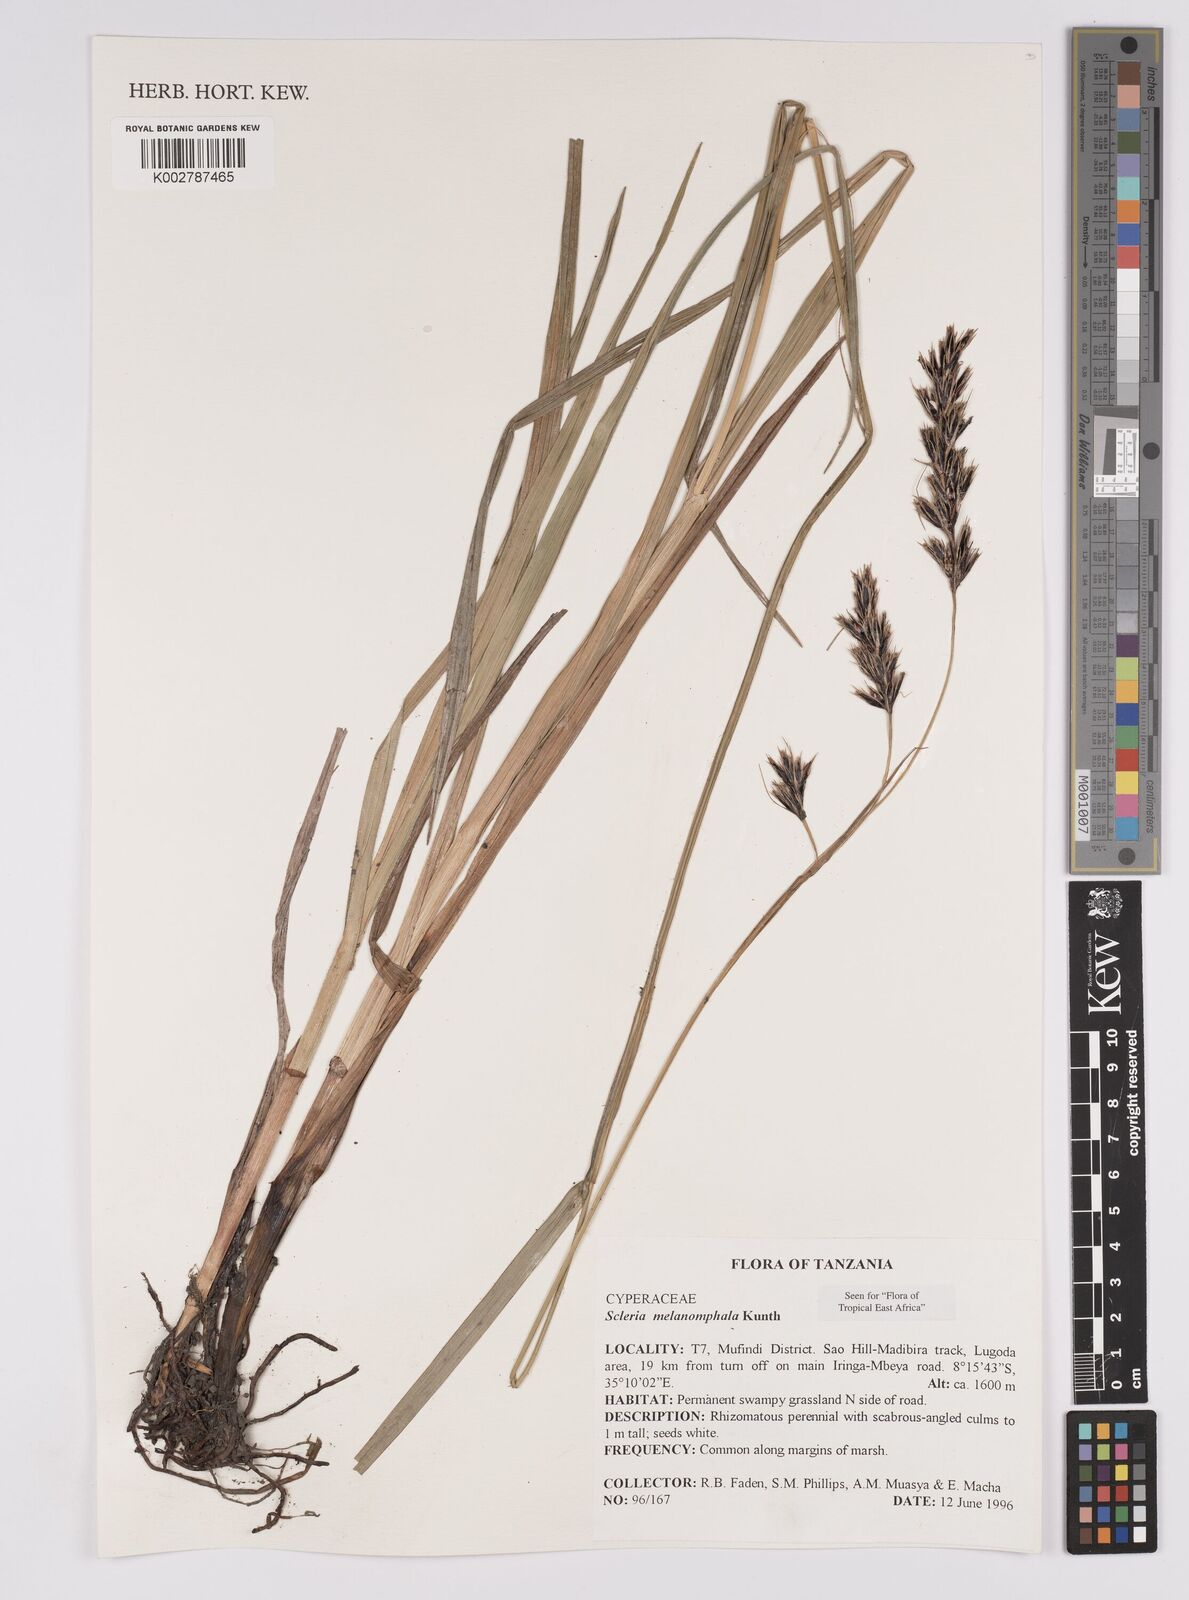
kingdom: Plantae
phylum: Tracheophyta
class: Liliopsida
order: Poales
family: Cyperaceae
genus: Scleria
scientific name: Scleria melanomphala
